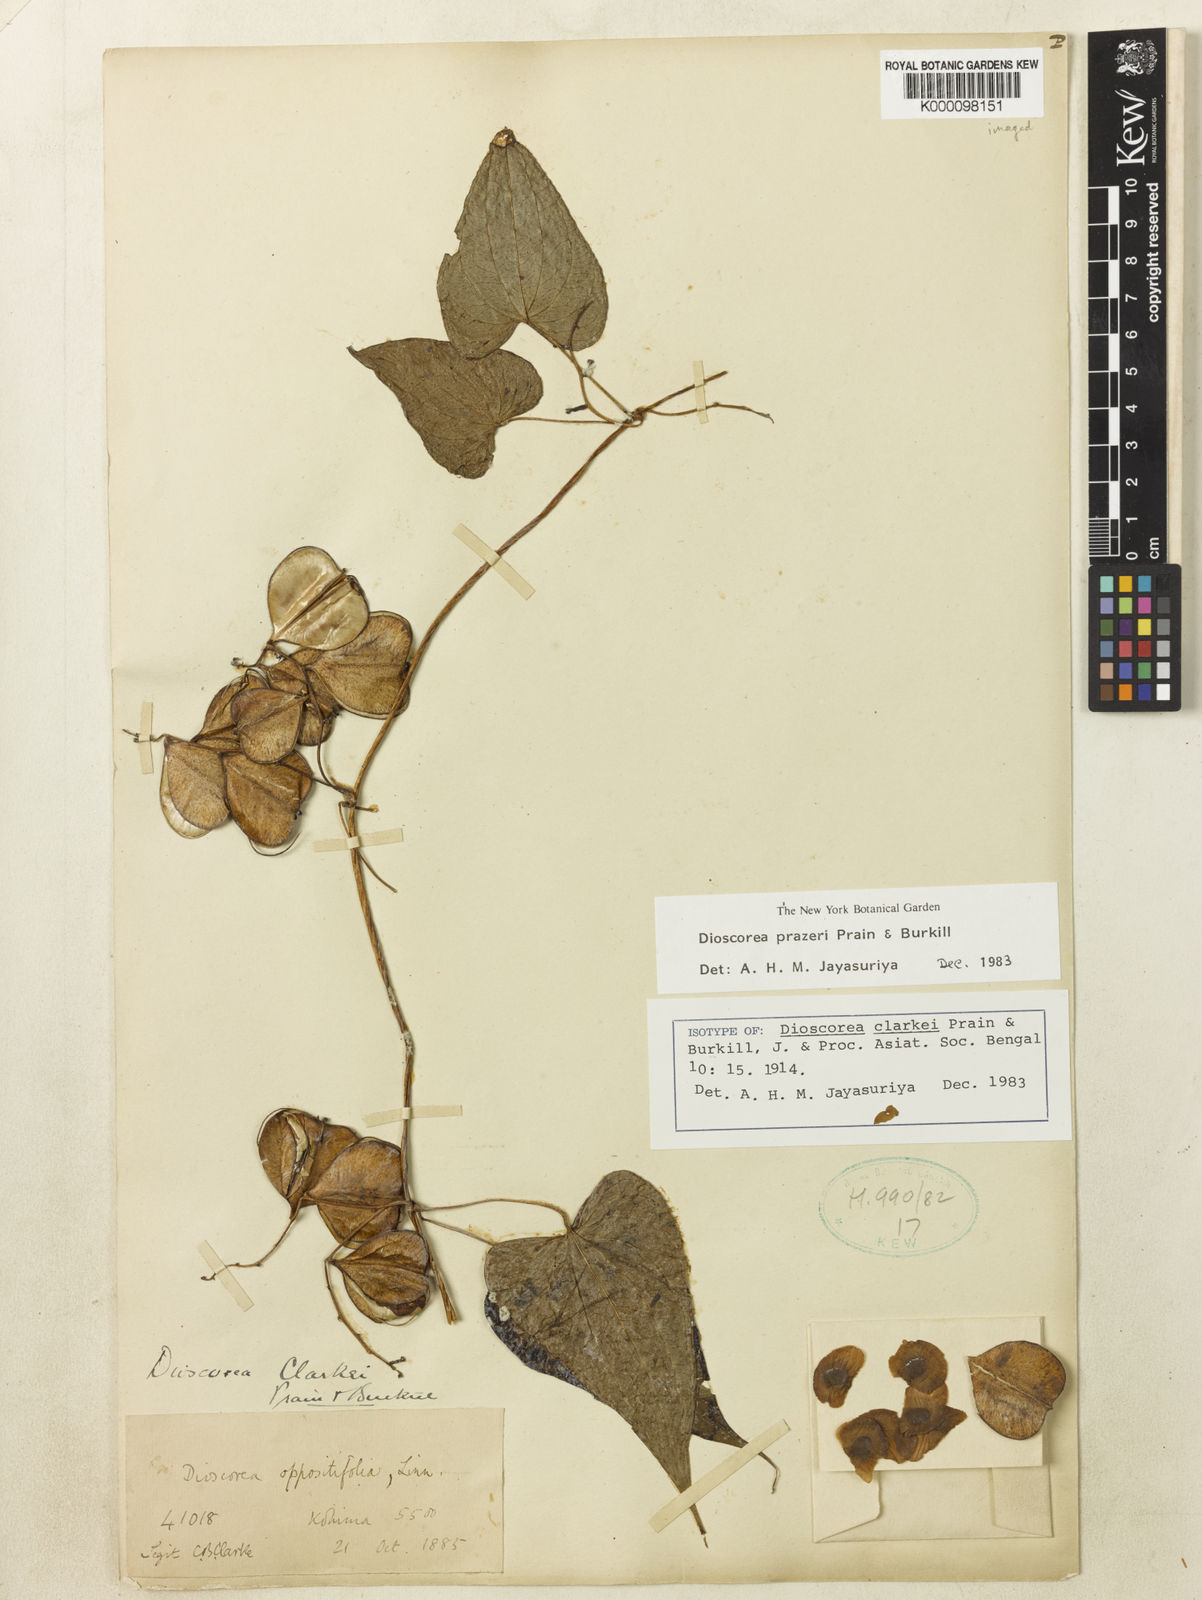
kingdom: Plantae
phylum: Tracheophyta
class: Liliopsida
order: Dioscoreales
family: Dioscoreaceae
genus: Dioscorea
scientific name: Dioscorea prazeri
